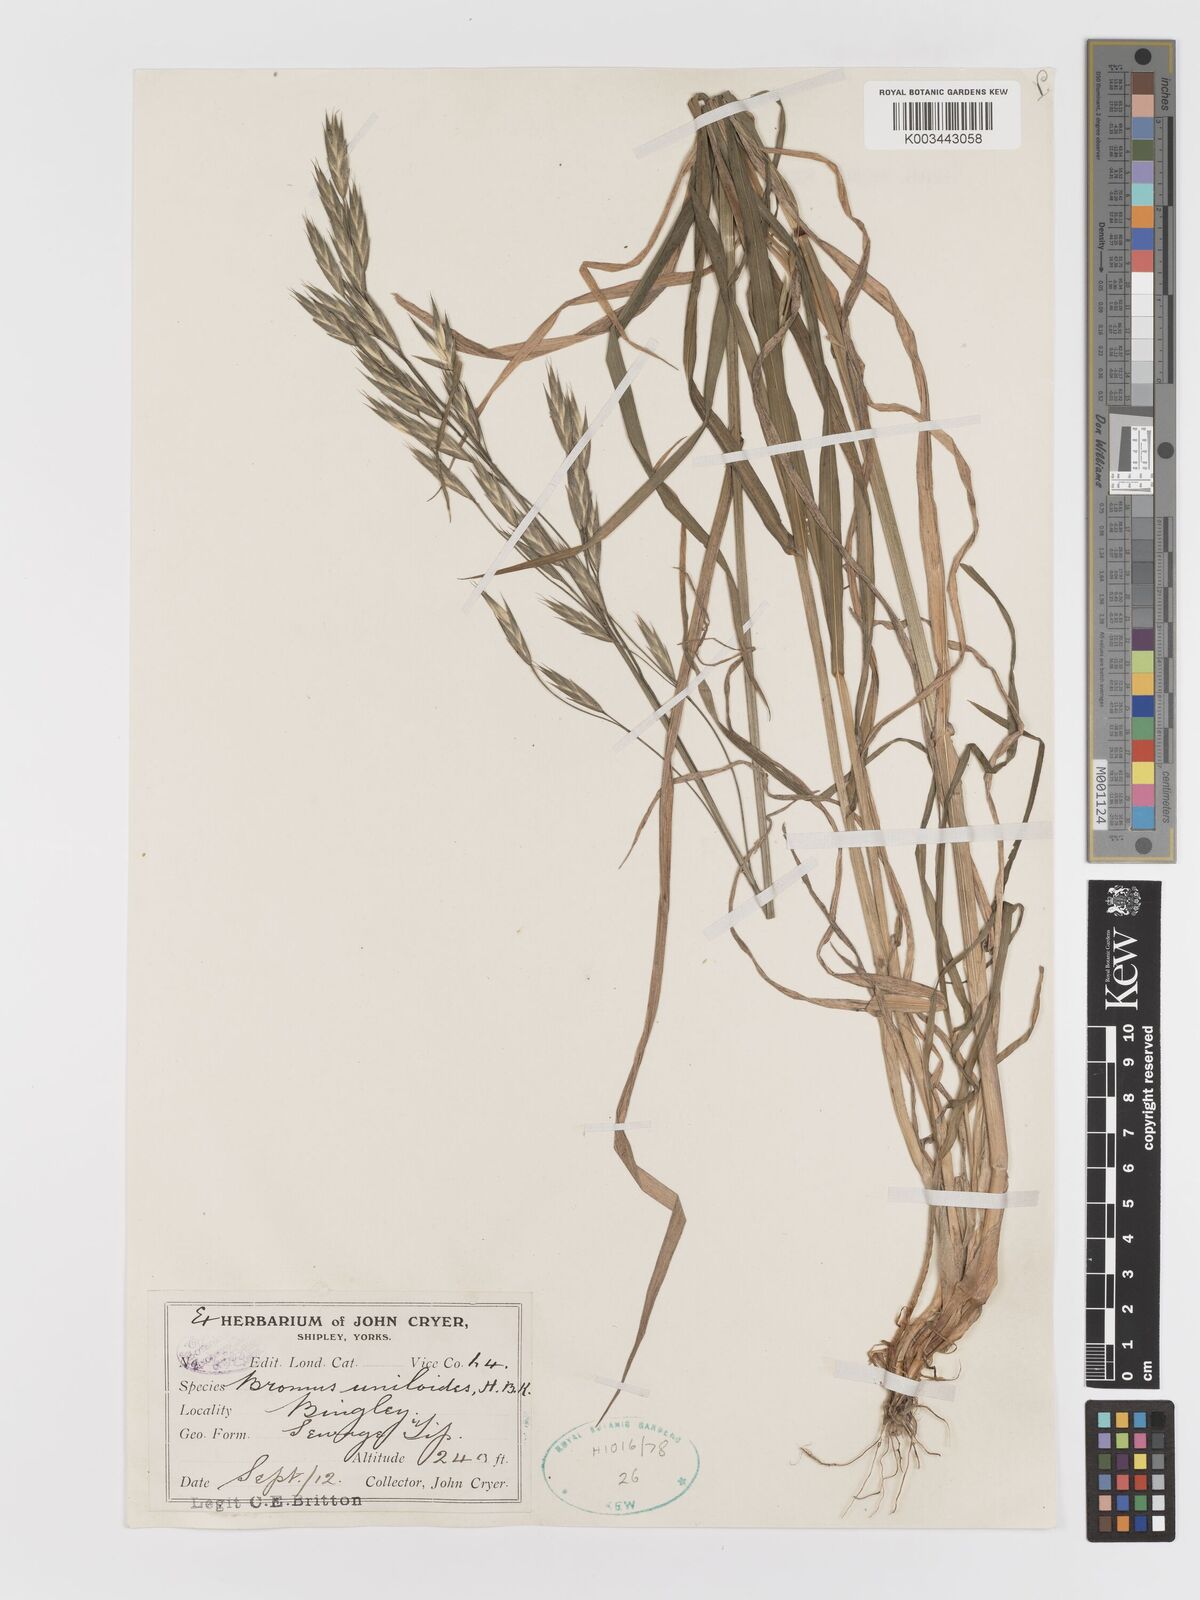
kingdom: Plantae
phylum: Tracheophyta
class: Liliopsida
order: Poales
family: Poaceae
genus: Bromus
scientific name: Bromus catharticus
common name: Rescuegrass
